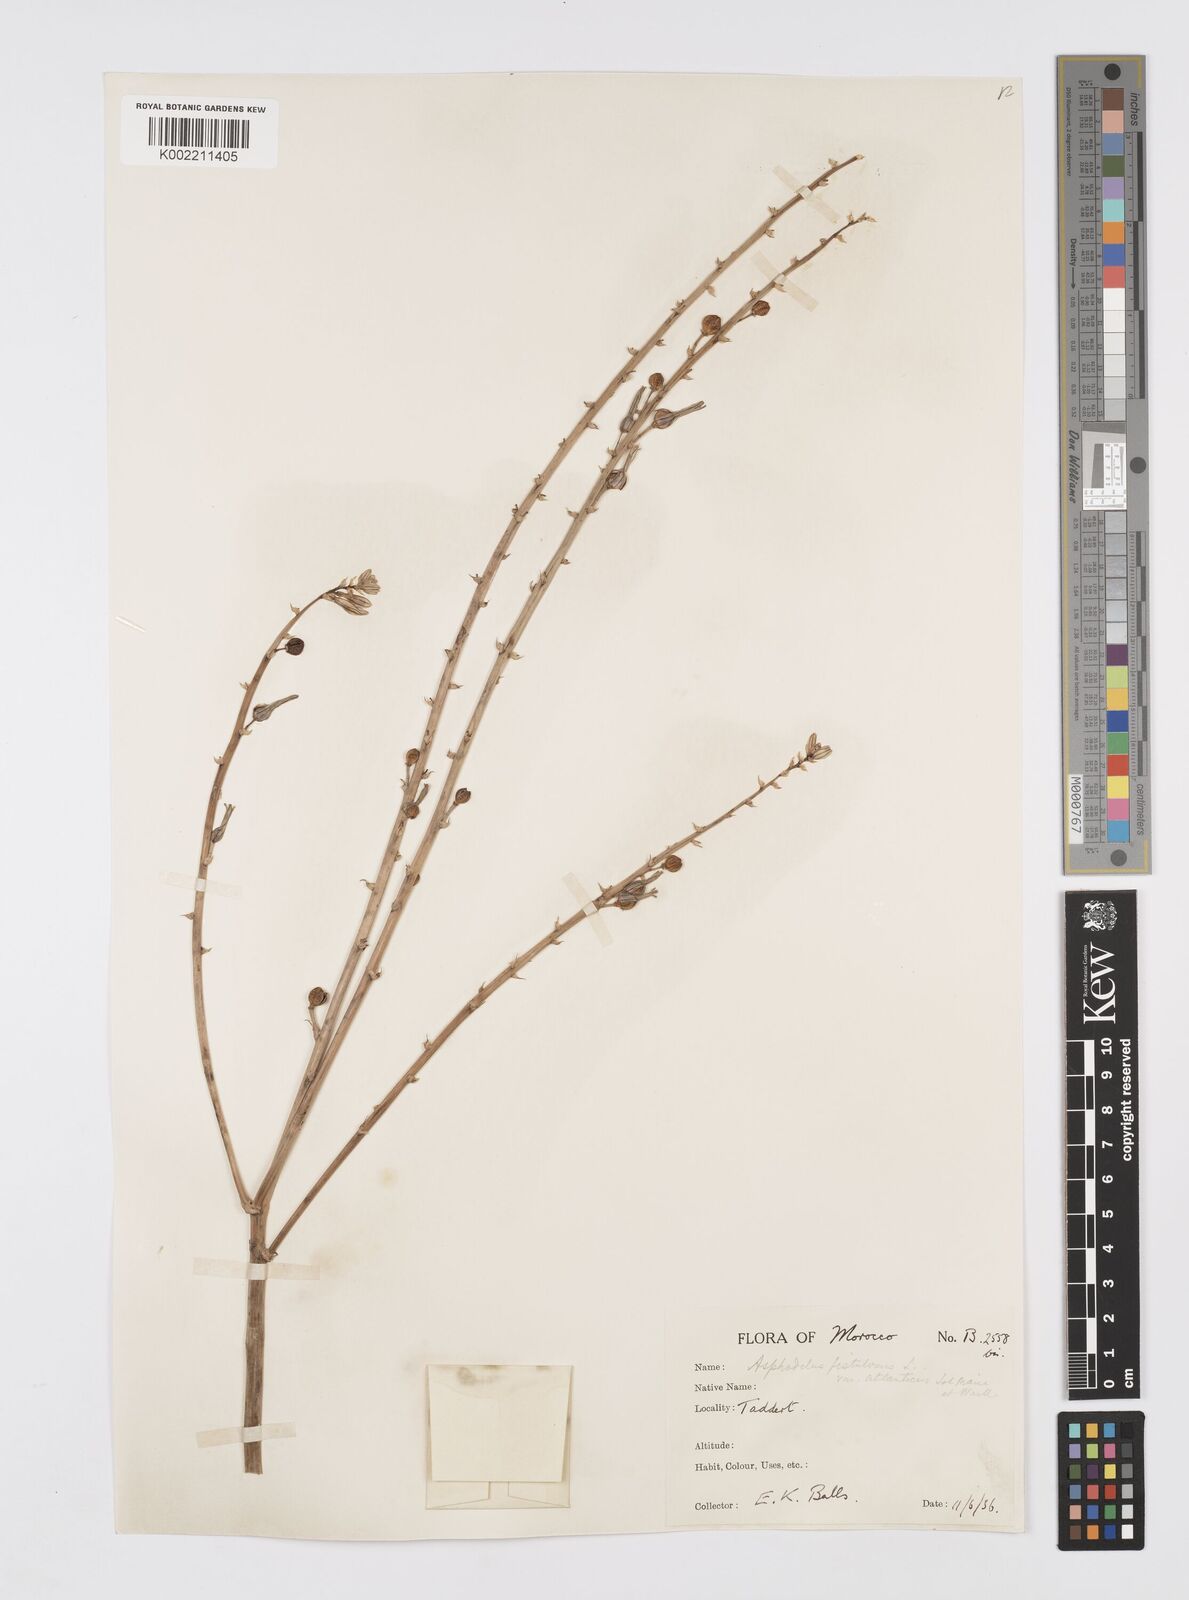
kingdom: Plantae
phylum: Tracheophyta
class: Liliopsida
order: Asparagales
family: Asphodelaceae
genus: Asphodelus
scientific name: Asphodelus fistulosus
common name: Onionweed
